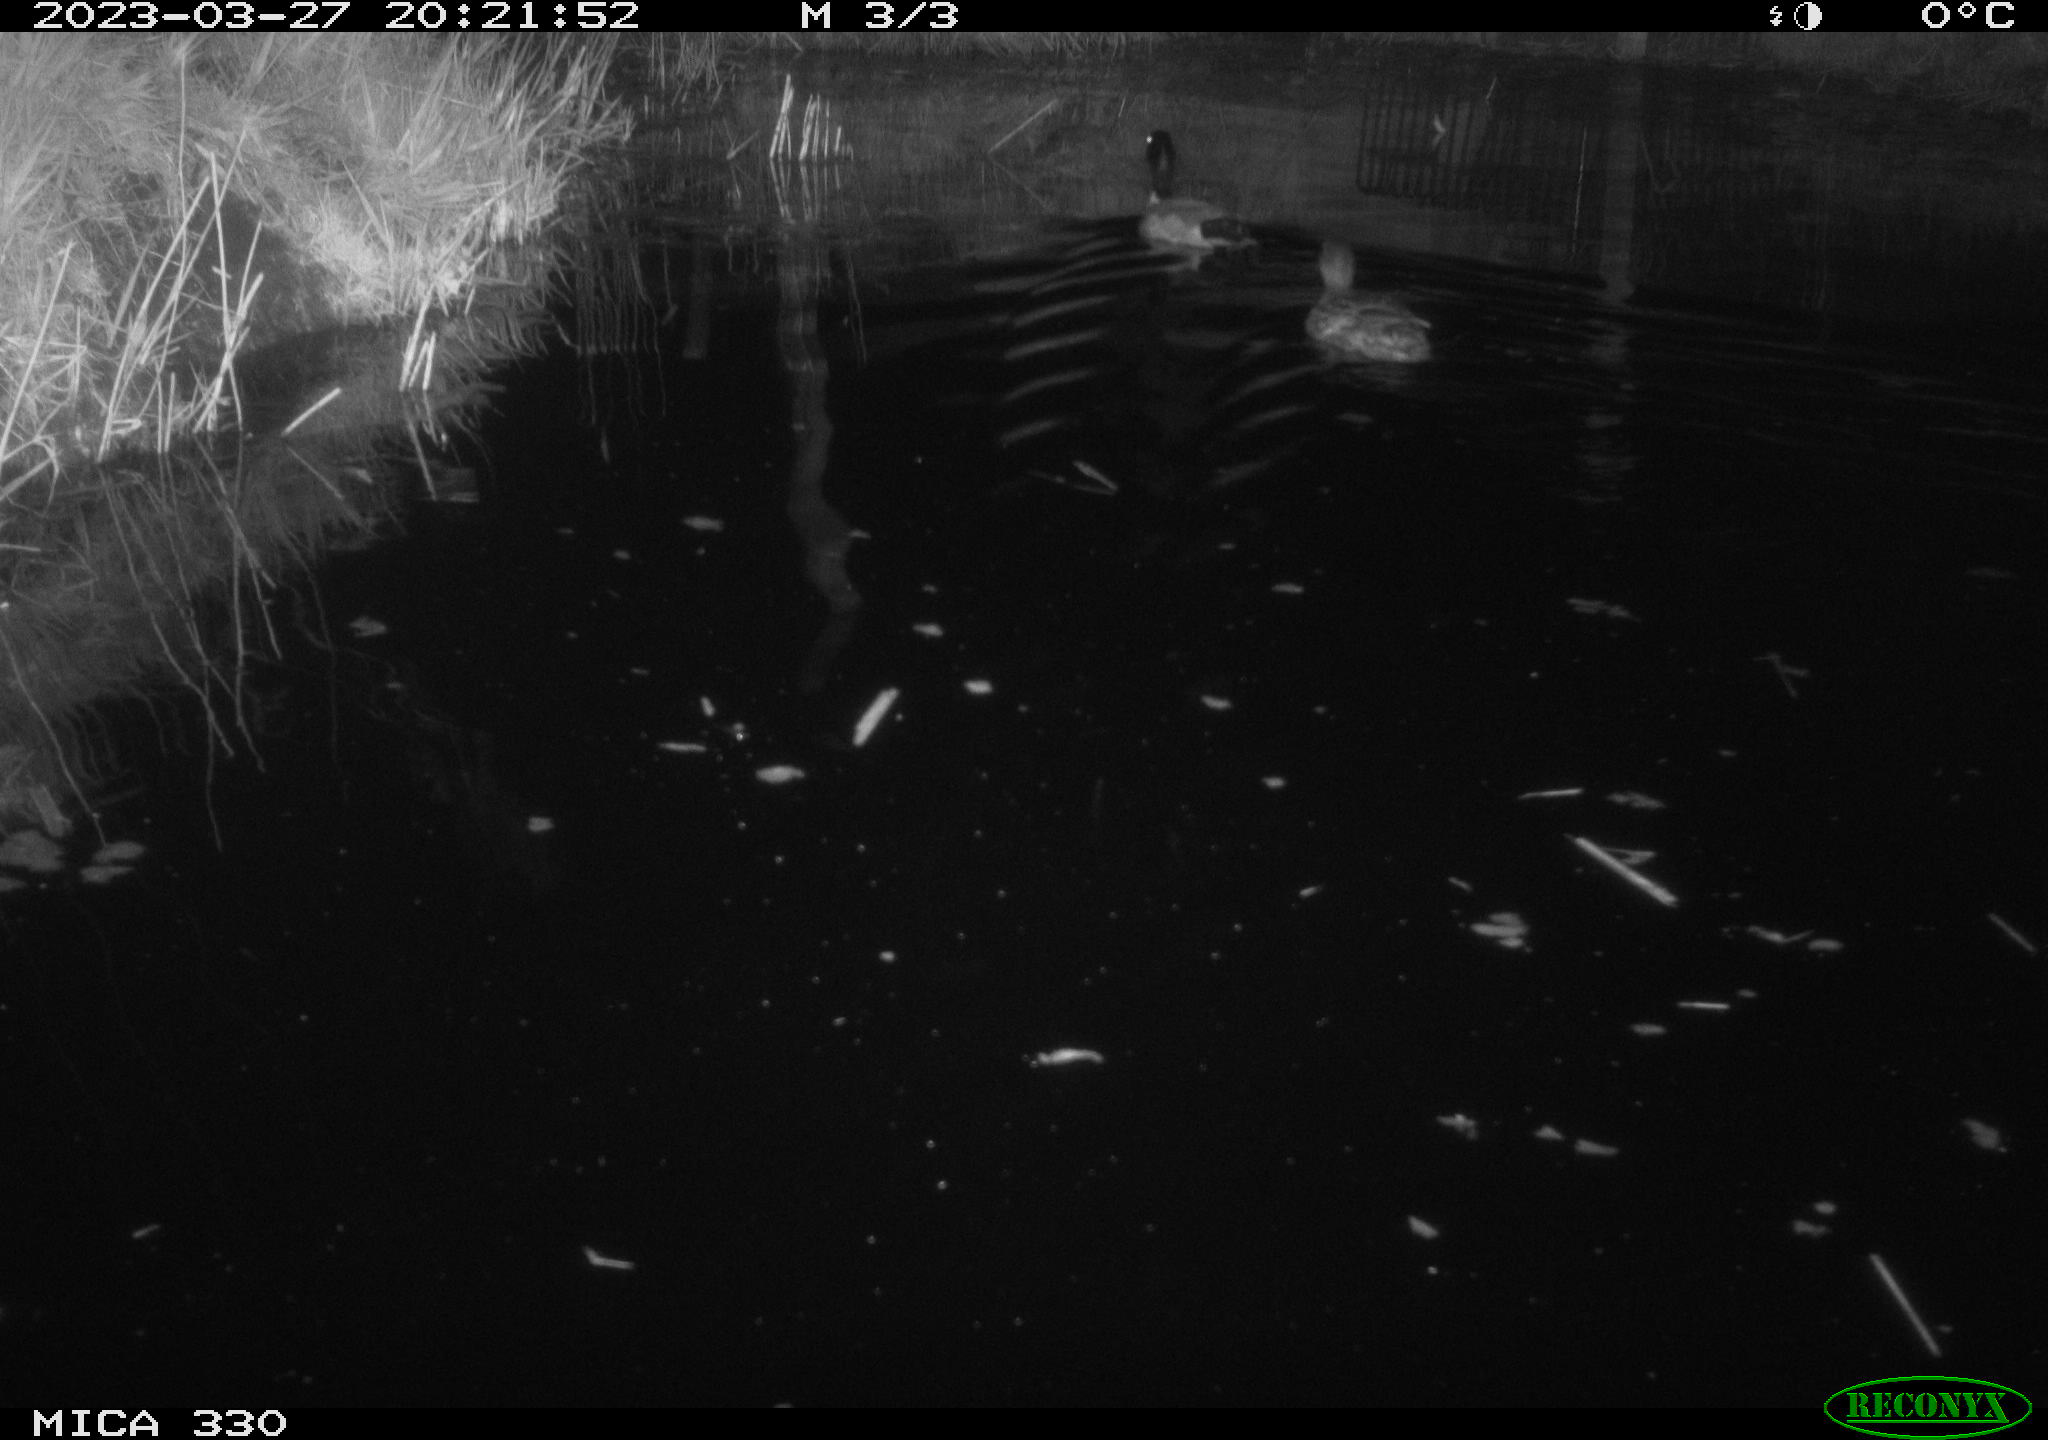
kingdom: Animalia
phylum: Chordata
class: Aves
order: Anseriformes
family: Anatidae
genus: Anas
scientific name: Anas
